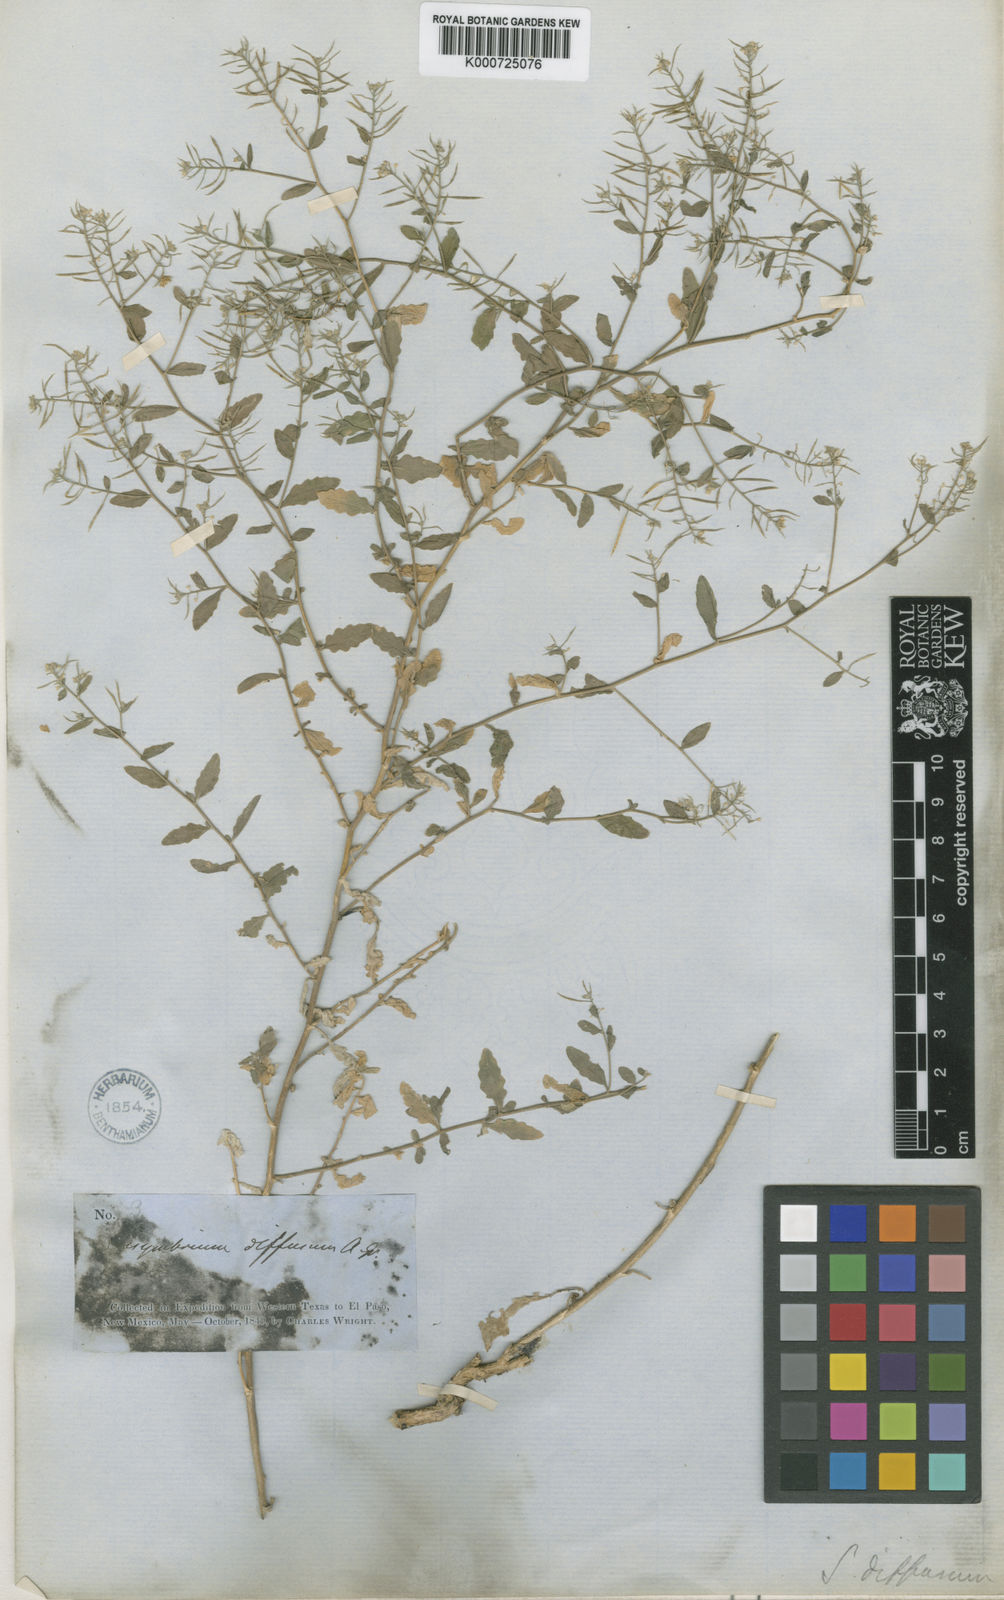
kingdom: Plantae
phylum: Tracheophyta
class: Magnoliopsida
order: Brassicales
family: Brassicaceae
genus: Halimolobos
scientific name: Halimolobos diffusus
